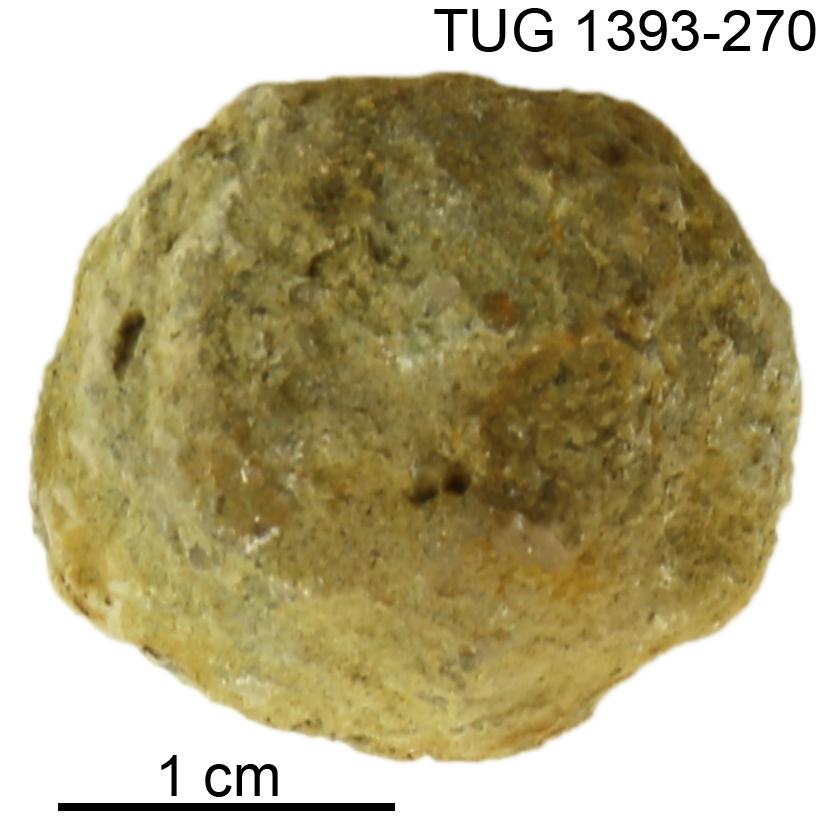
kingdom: Animalia
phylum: Bryozoa
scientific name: Bryozoa
